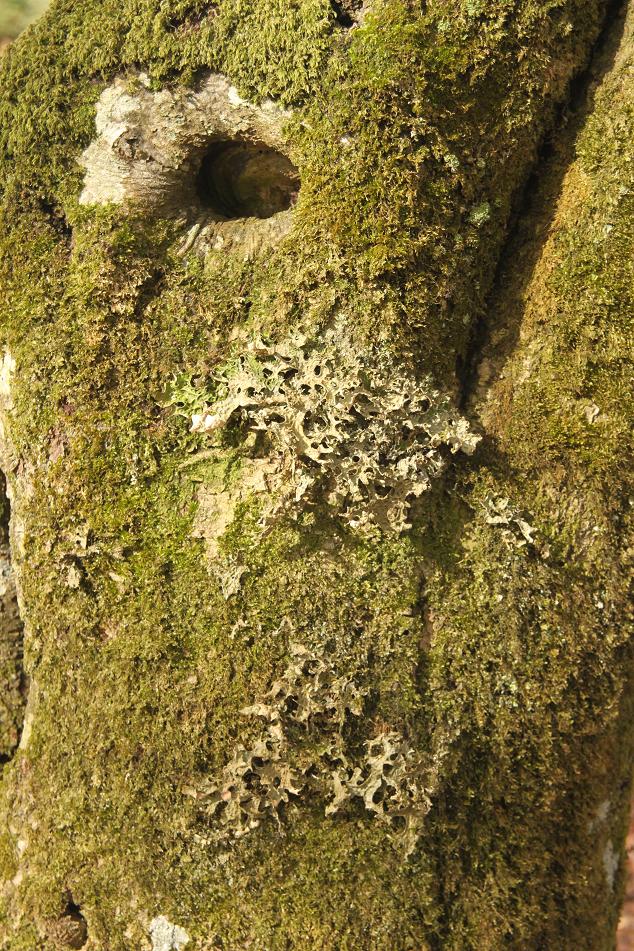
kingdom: Fungi
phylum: Ascomycota
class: Lecanoromycetes
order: Peltigerales
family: Lobariaceae
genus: Lobaria
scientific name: Lobaria pulmonaria
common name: almindelig lungelav
